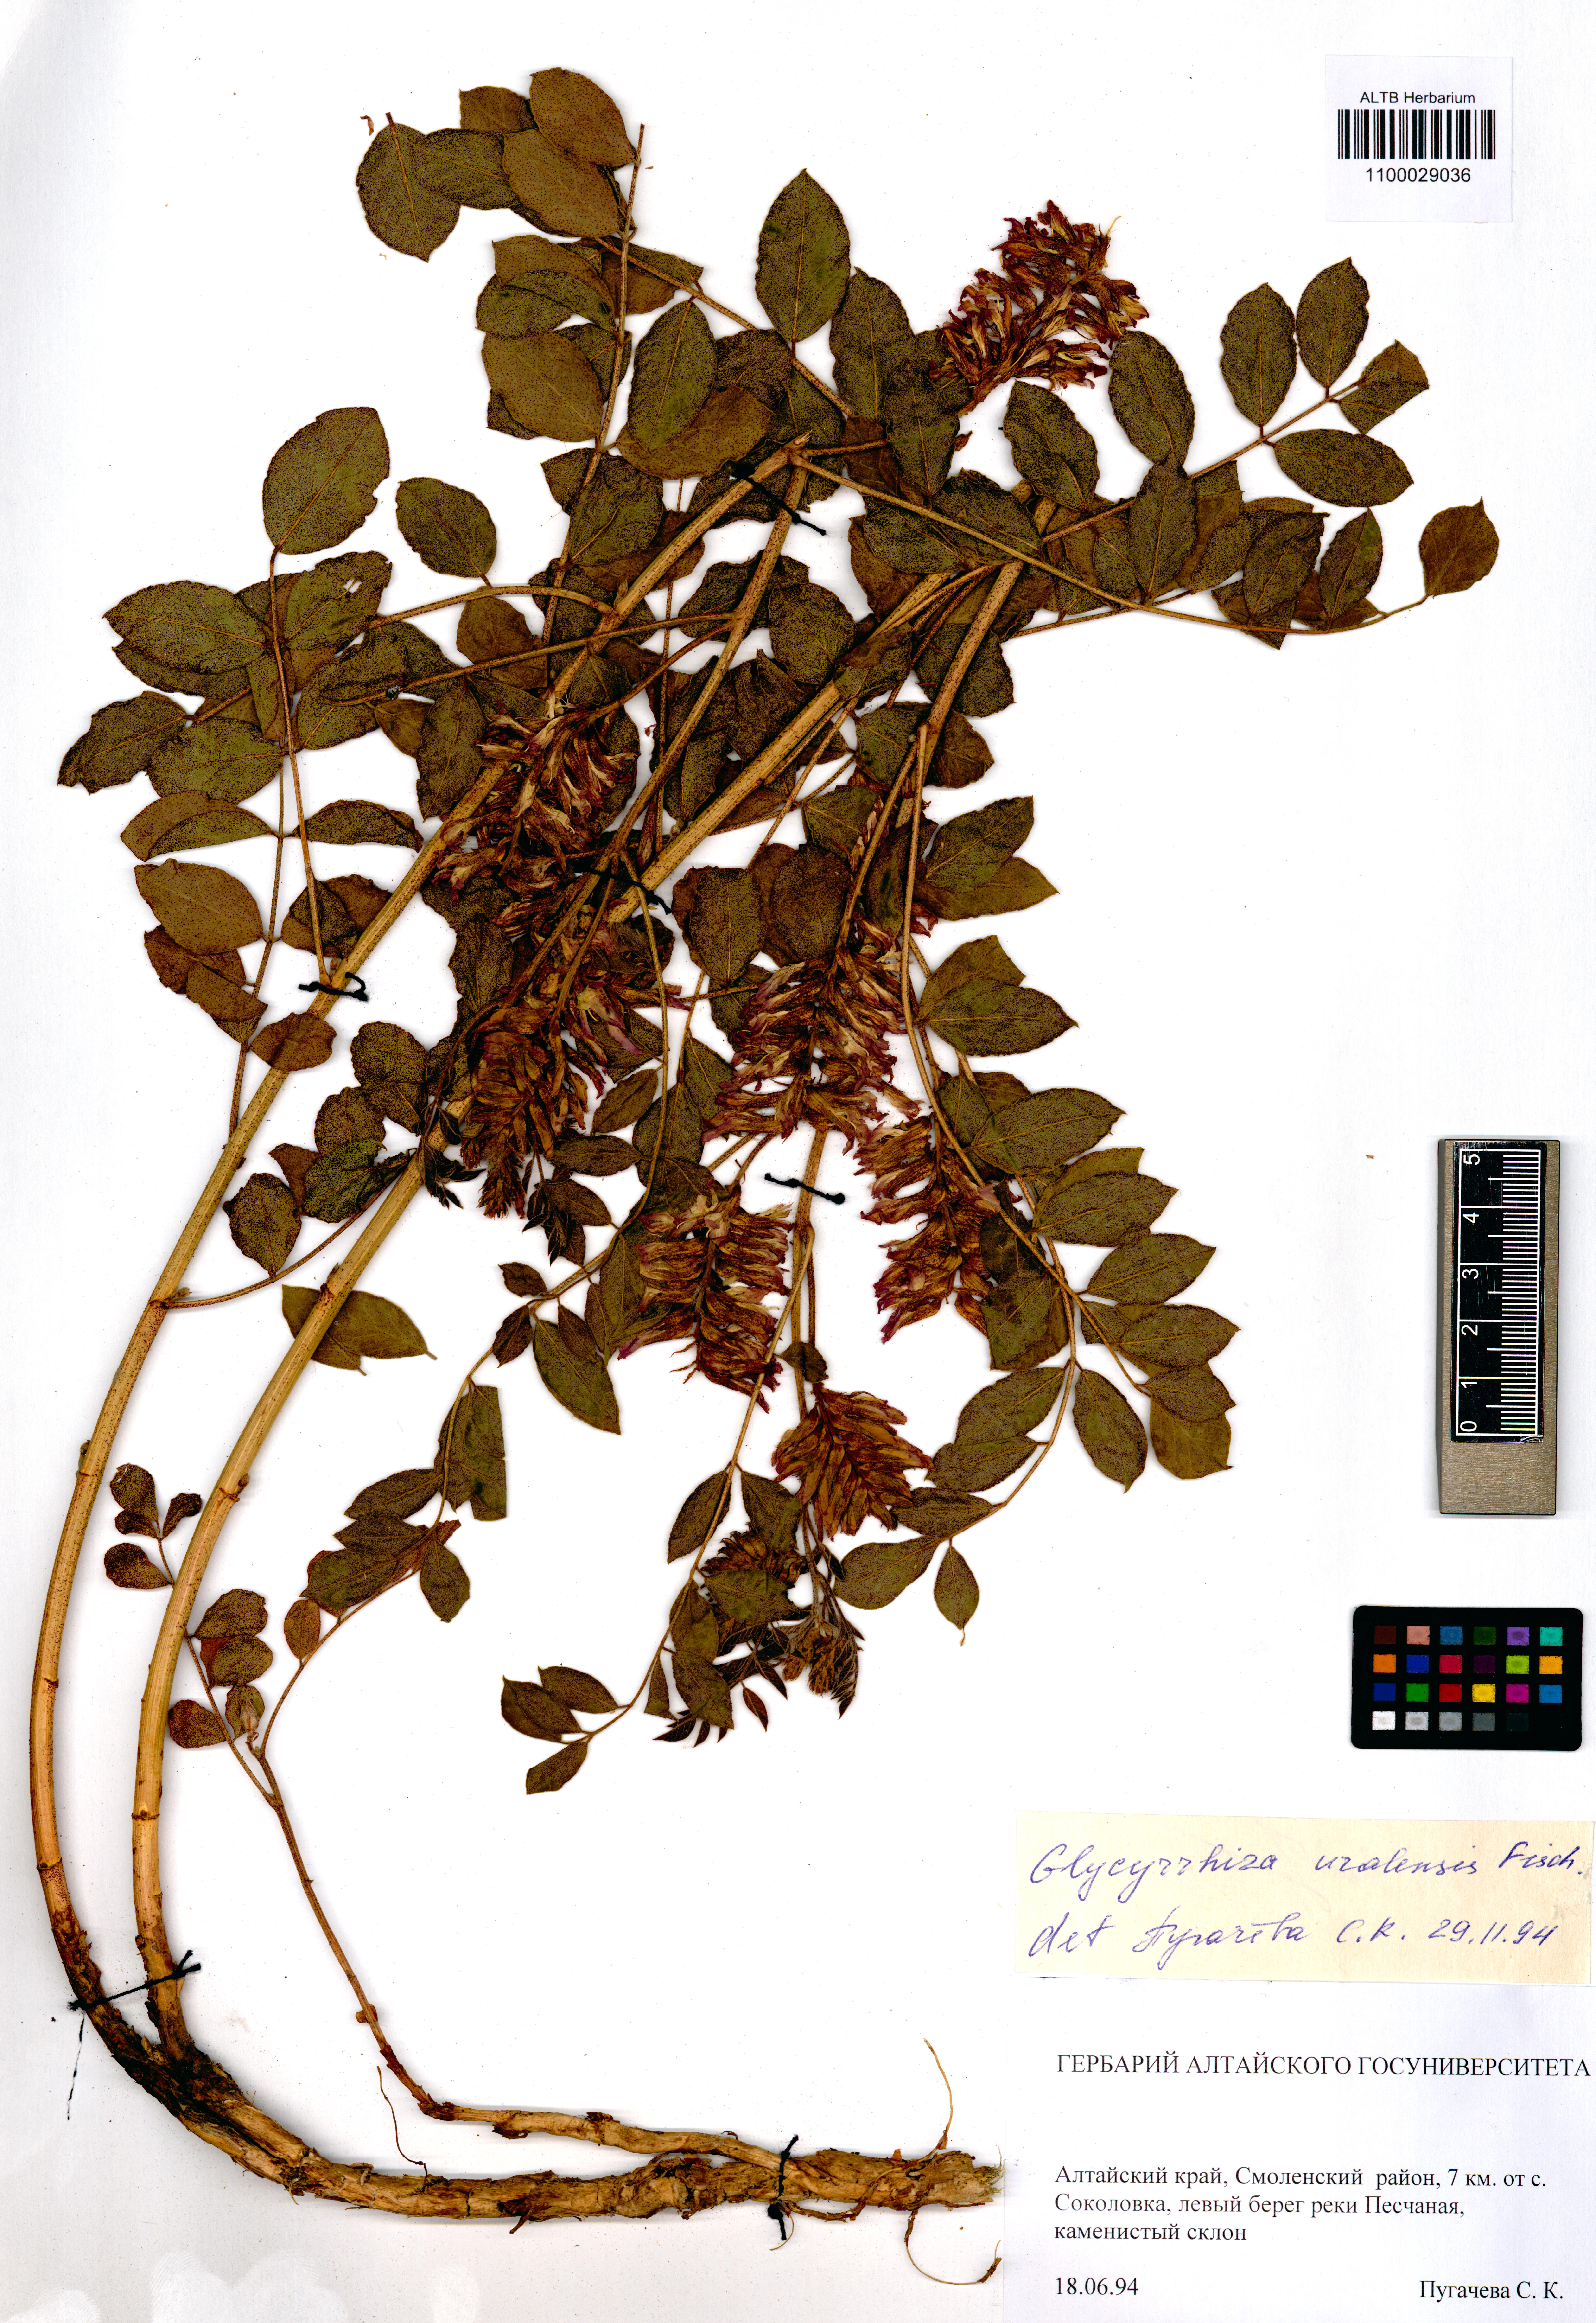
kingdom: Plantae
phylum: Tracheophyta
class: Magnoliopsida
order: Fabales
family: Fabaceae
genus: Glycyrrhiza
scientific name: Glycyrrhiza uralensis
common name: Chinese licorice
